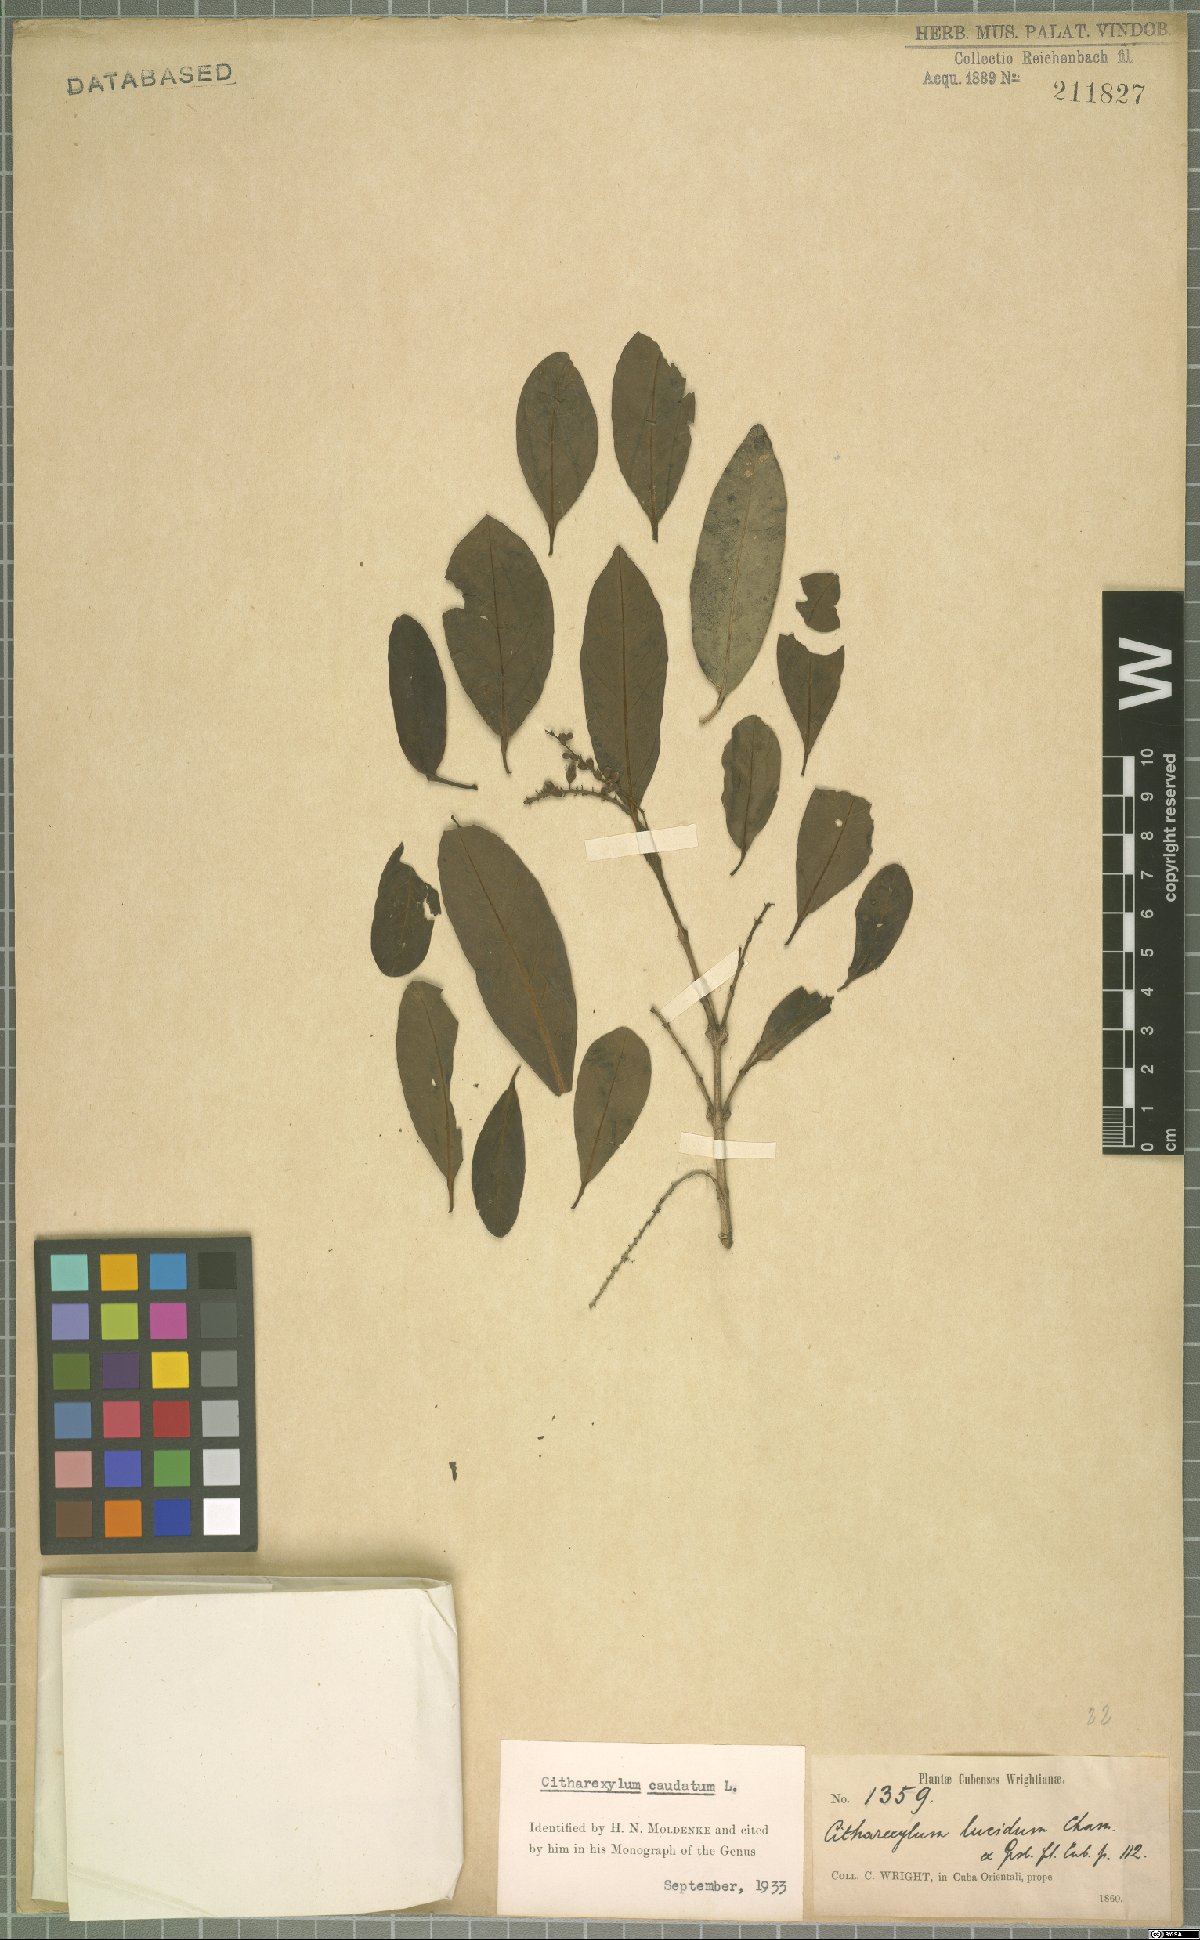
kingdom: Plantae
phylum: Tracheophyta
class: Magnoliopsida
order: Lamiales
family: Verbenaceae
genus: Citharexylum
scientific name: Citharexylum caudatum
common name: Fiddlewood
